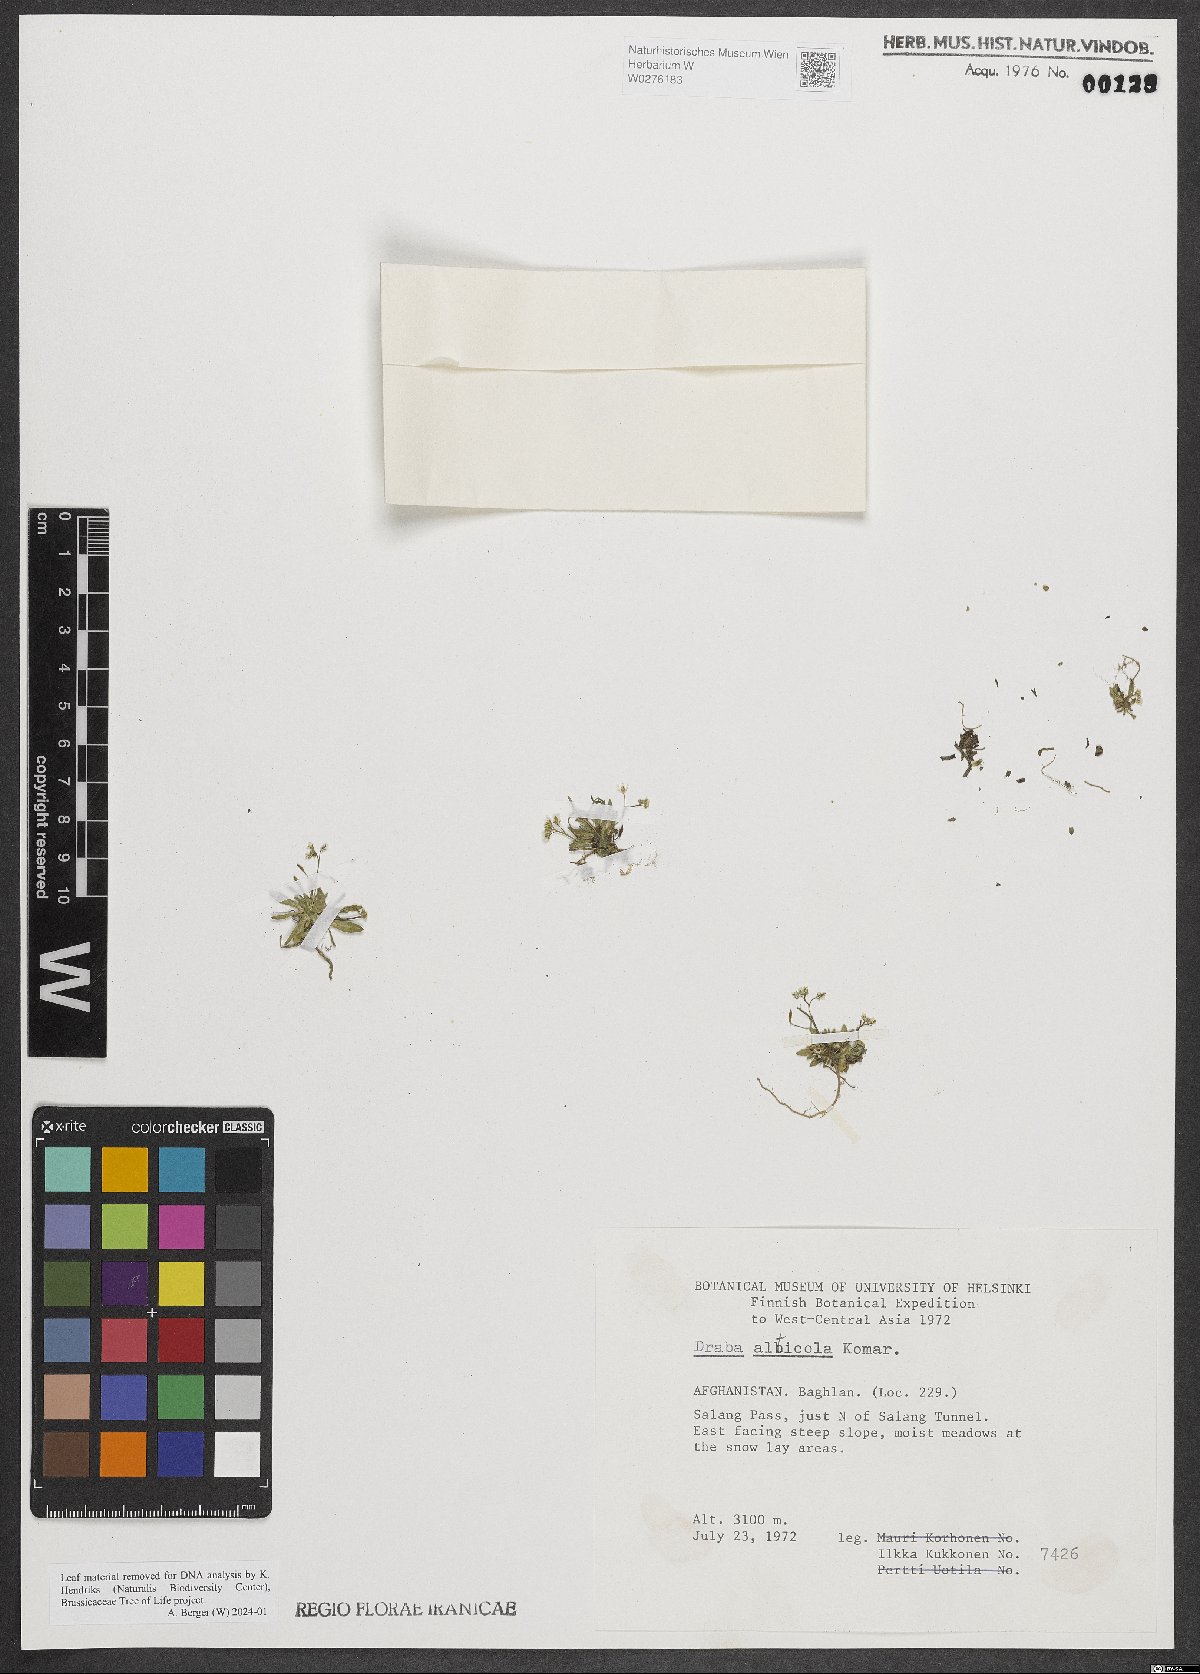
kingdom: Plantae
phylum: Tracheophyta
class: Magnoliopsida
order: Brassicales
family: Brassicaceae
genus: Draba
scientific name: Draba alticola
